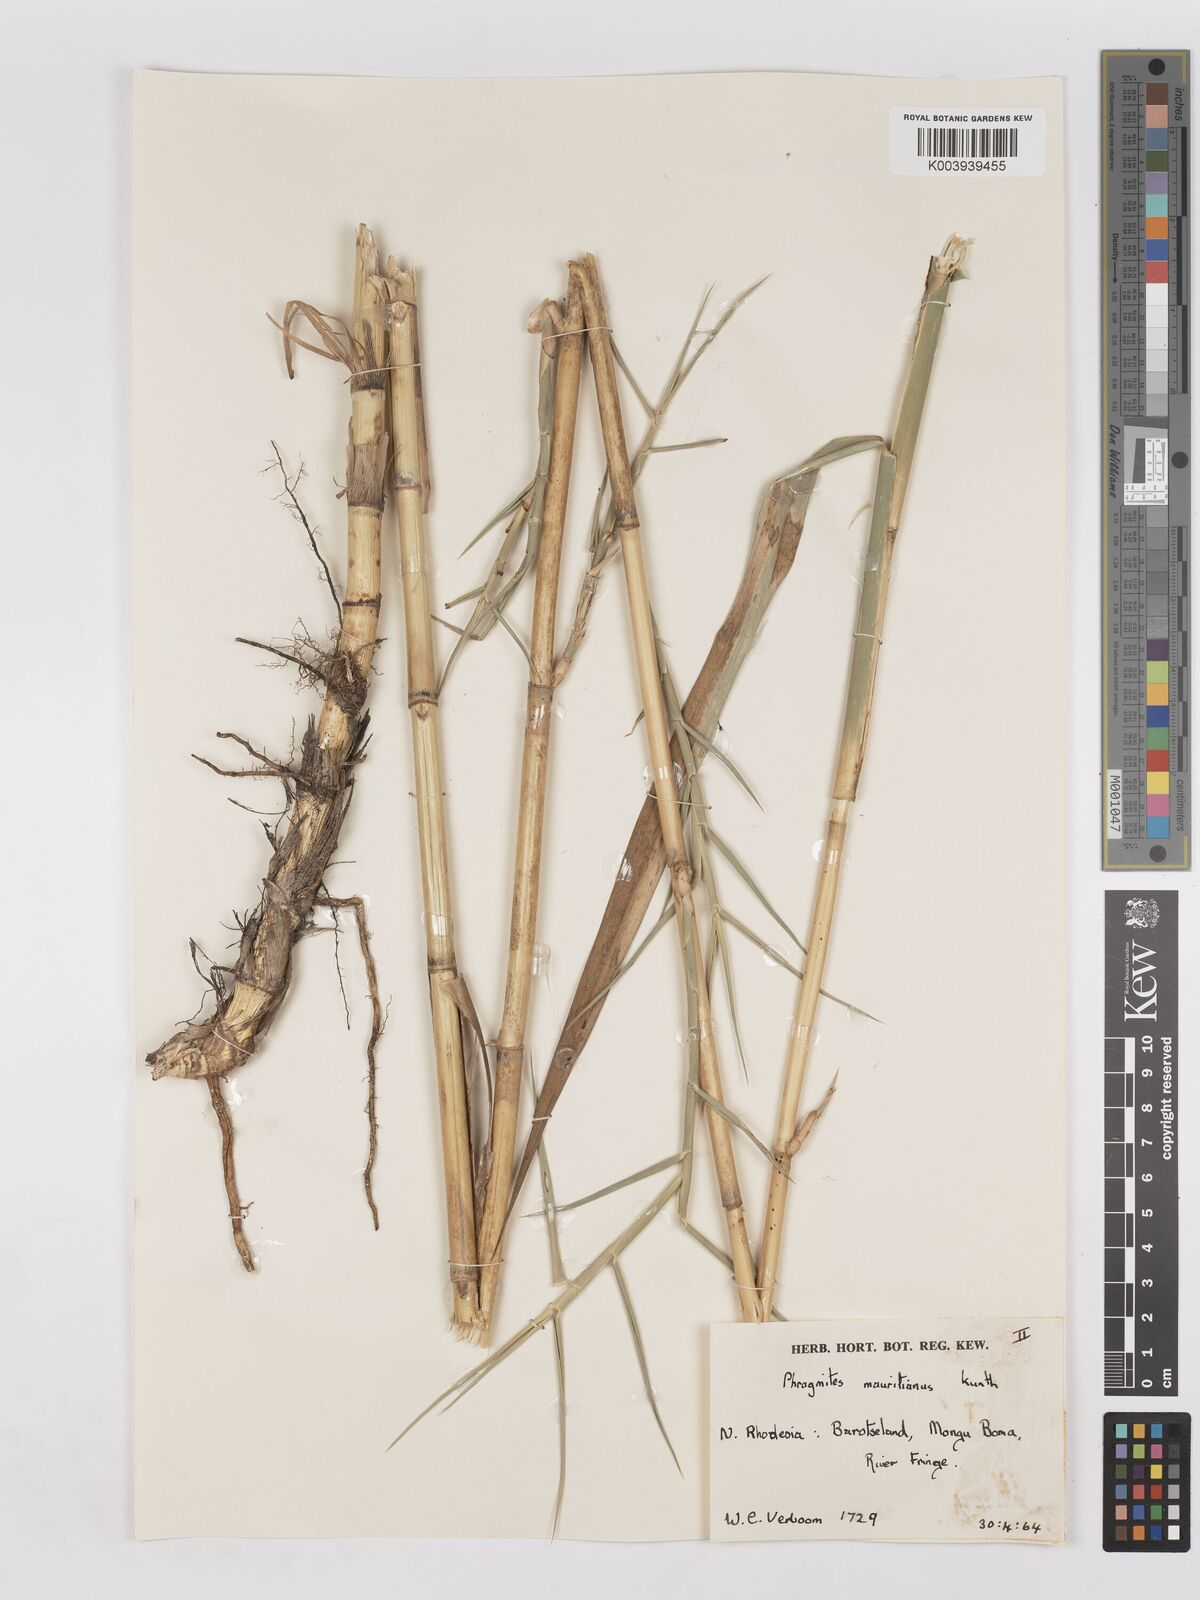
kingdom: Plantae
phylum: Tracheophyta
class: Liliopsida
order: Poales
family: Poaceae
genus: Phragmites
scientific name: Phragmites mauritianus
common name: Reed grass
